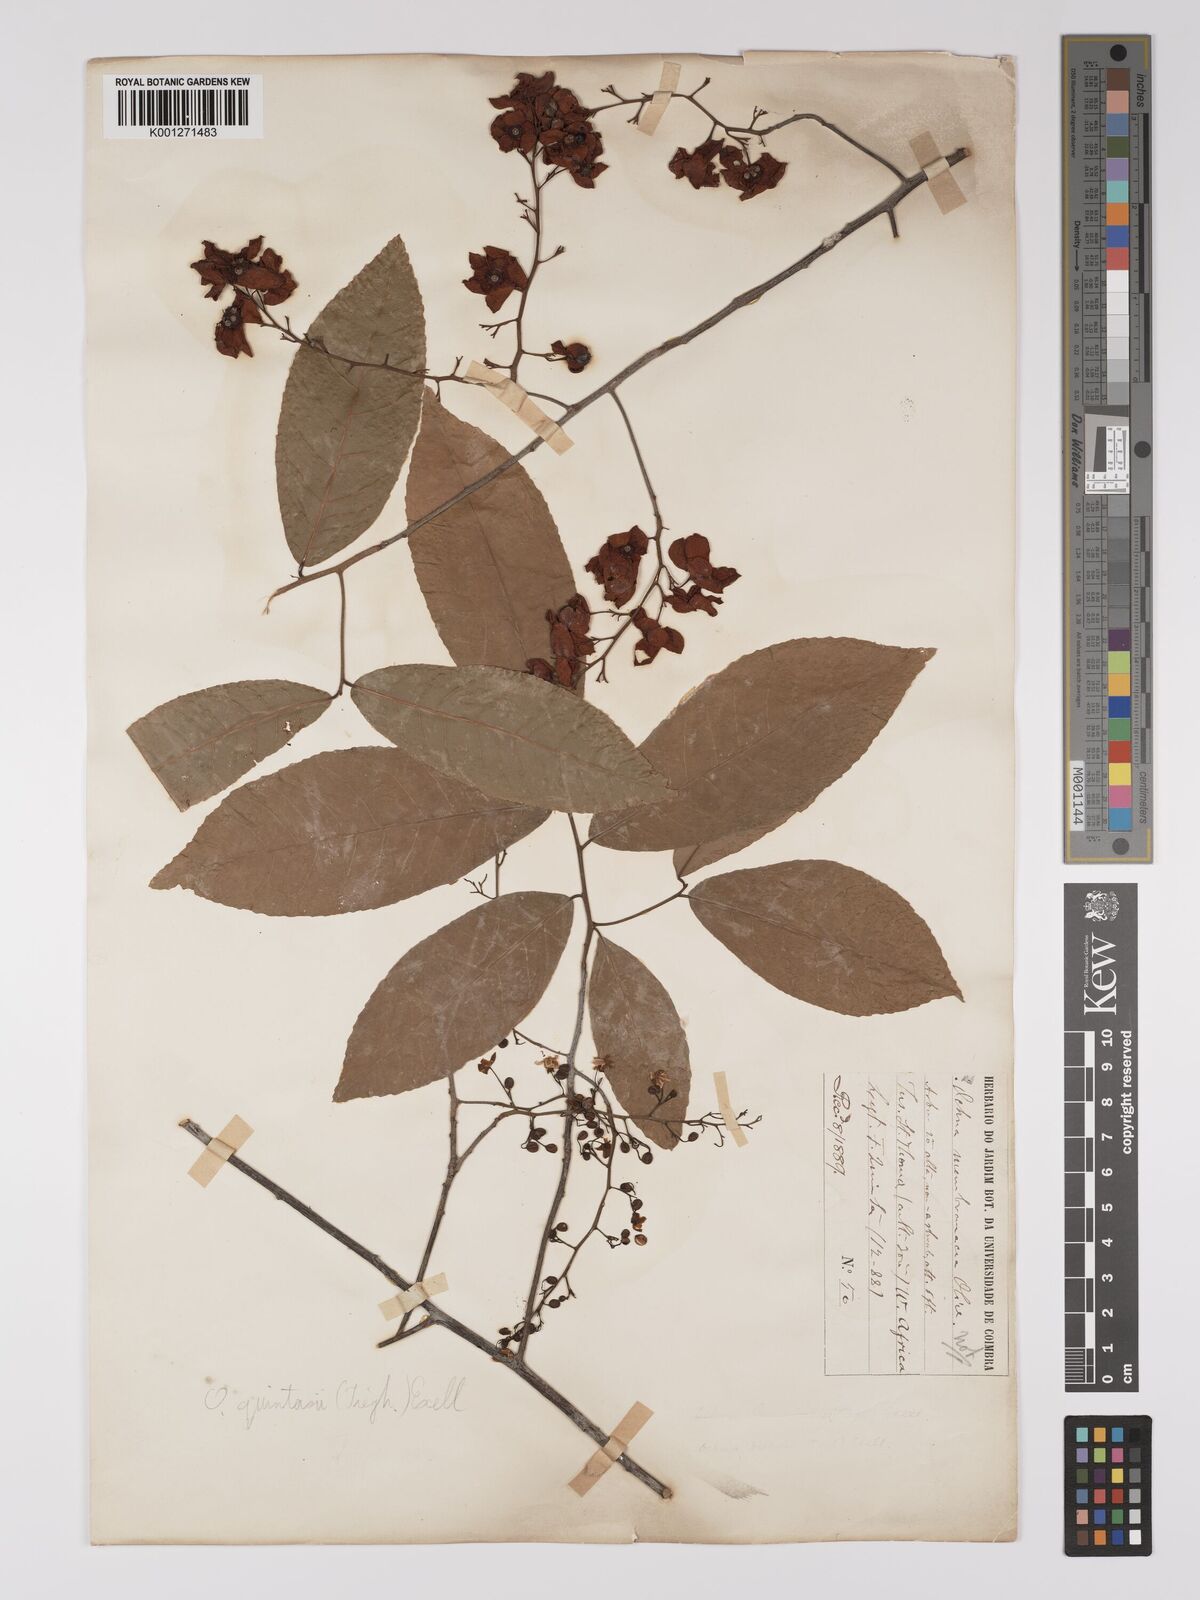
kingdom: Plantae
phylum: Tracheophyta
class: Magnoliopsida
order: Malpighiales
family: Ochnaceae
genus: Ochna
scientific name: Ochna membranacea
